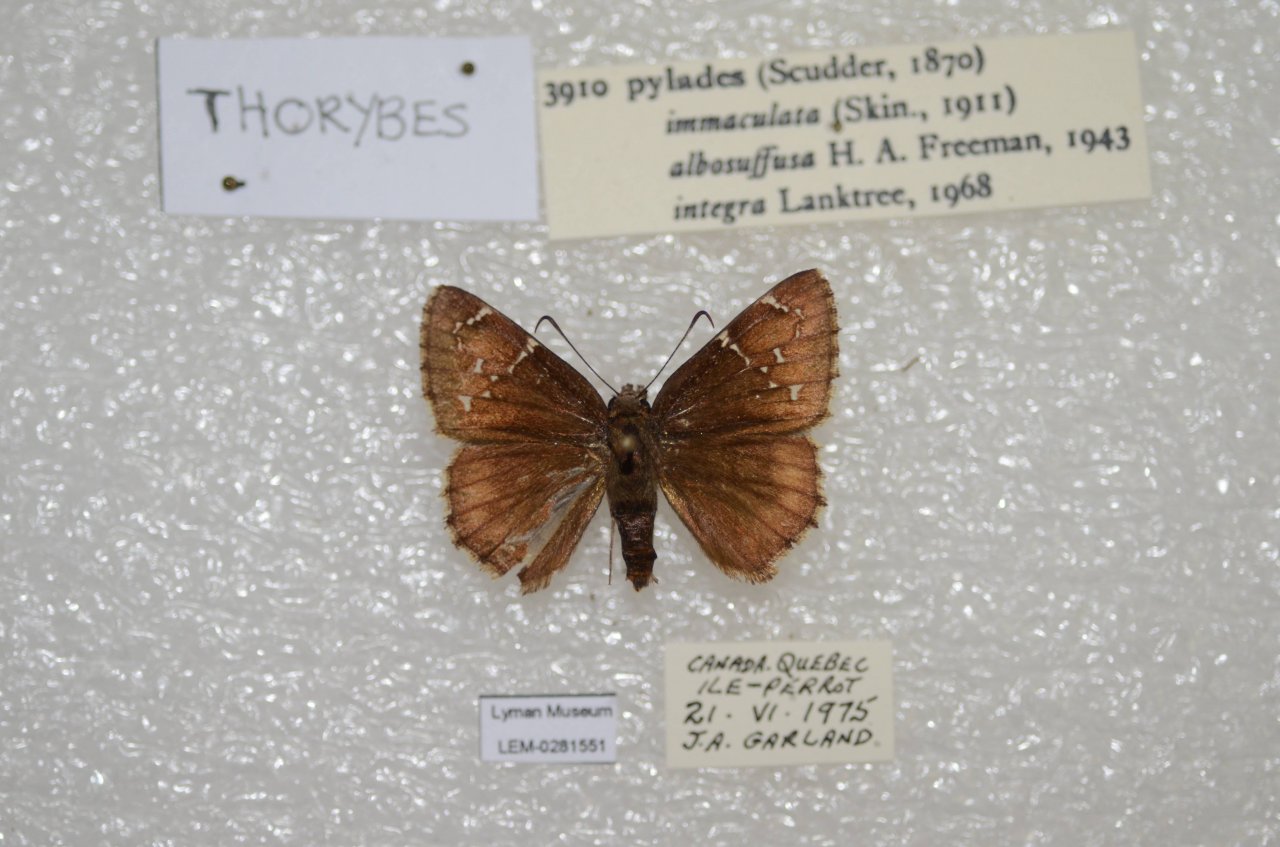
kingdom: Animalia
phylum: Arthropoda
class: Insecta
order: Lepidoptera
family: Hesperiidae
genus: Autochton
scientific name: Autochton
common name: Northern Cloudywing
